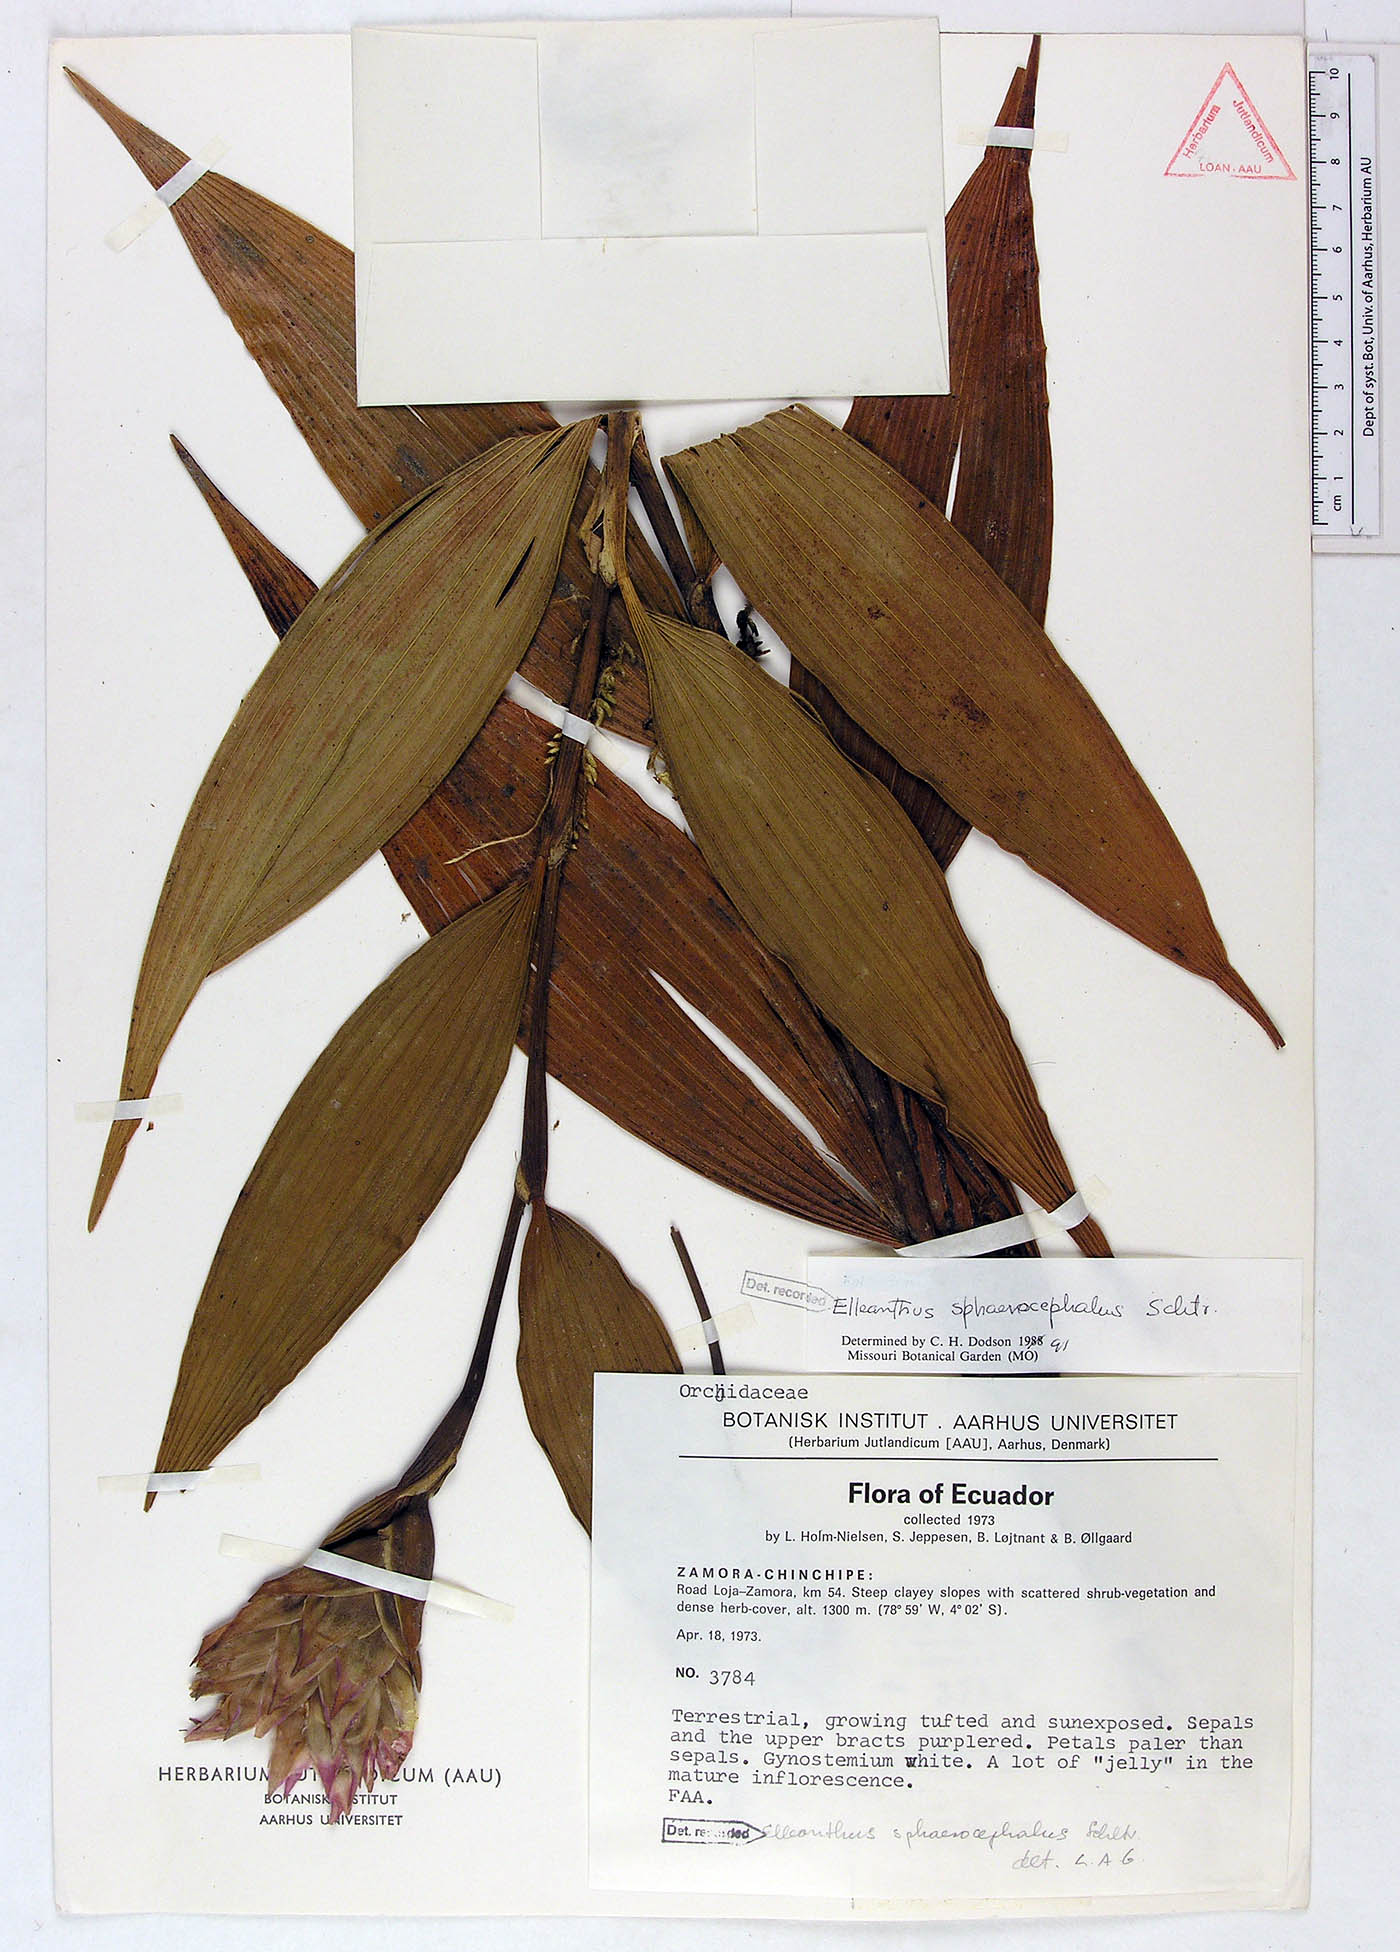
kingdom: Plantae
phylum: Tracheophyta
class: Liliopsida
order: Asparagales
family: Orchidaceae
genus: Elleanthus
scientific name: Elleanthus sphaerocephalus
